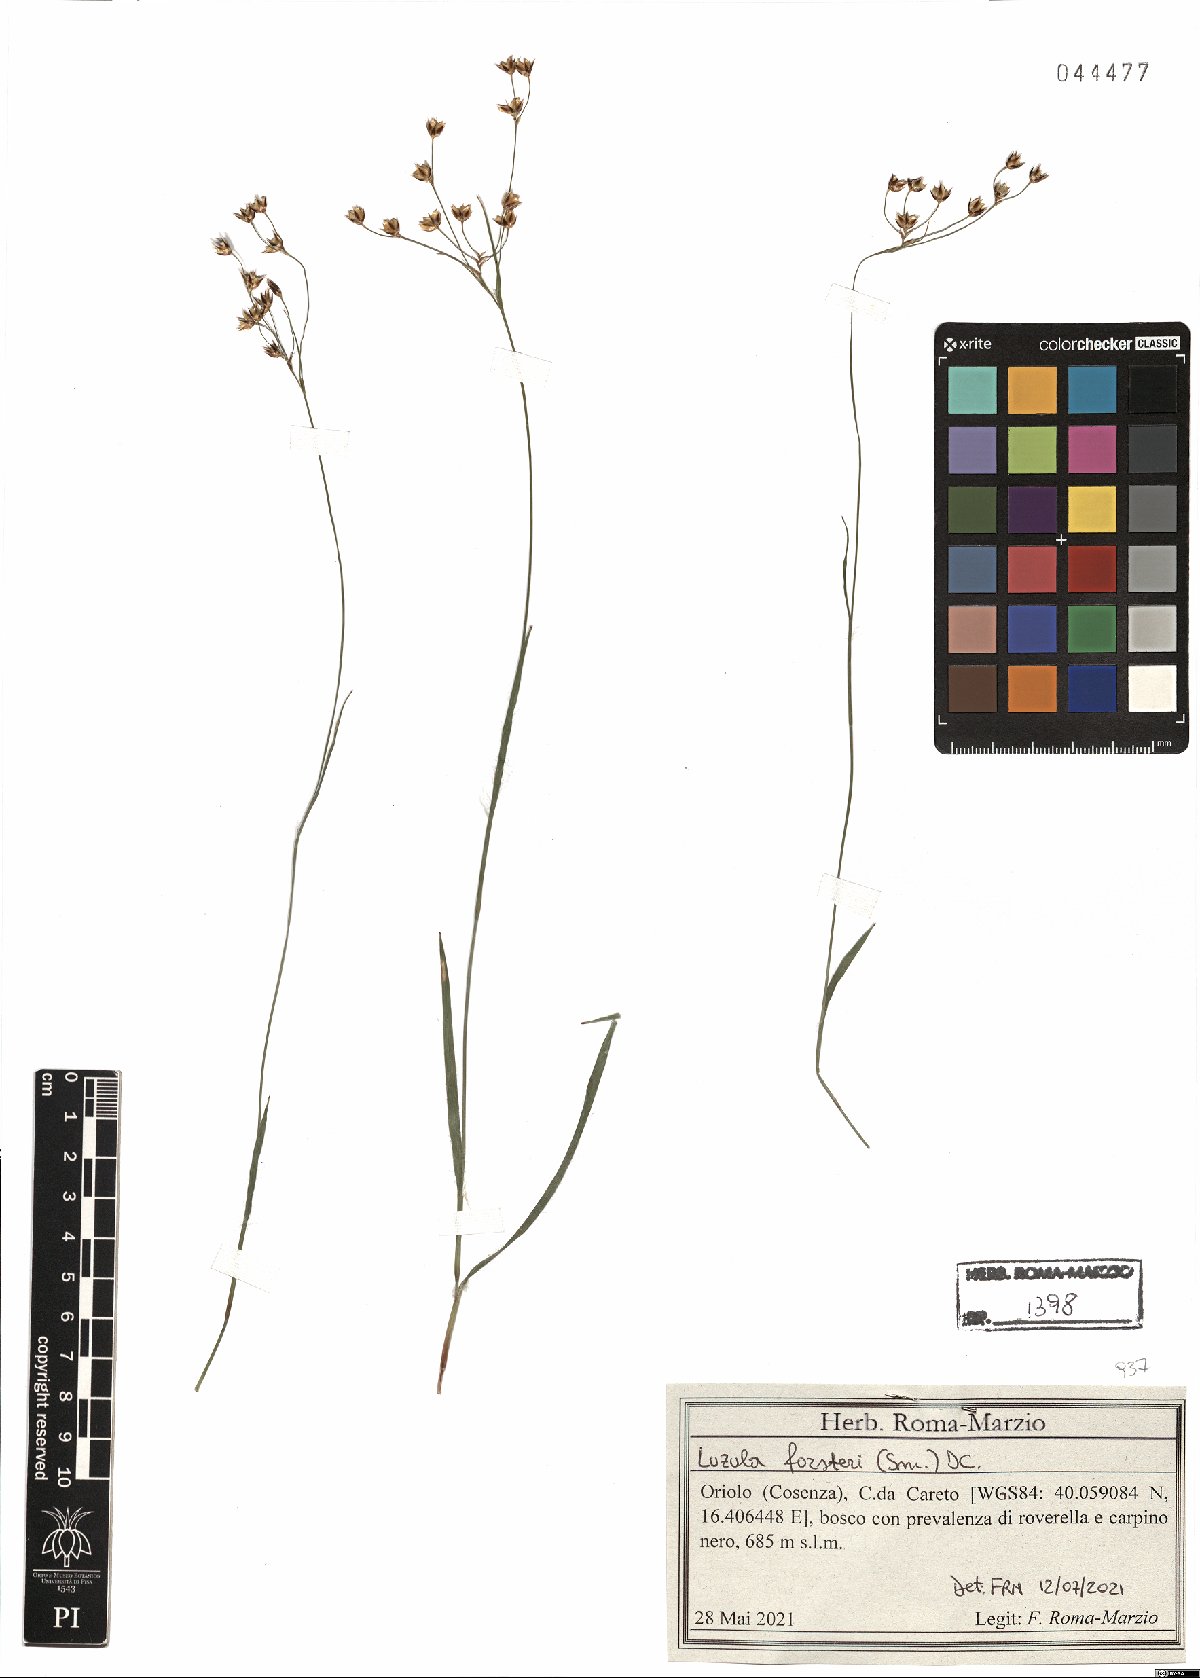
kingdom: Plantae
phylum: Tracheophyta
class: Liliopsida
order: Poales
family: Juncaceae
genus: Luzula
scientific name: Luzula forsteri
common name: Southern wood-rush
